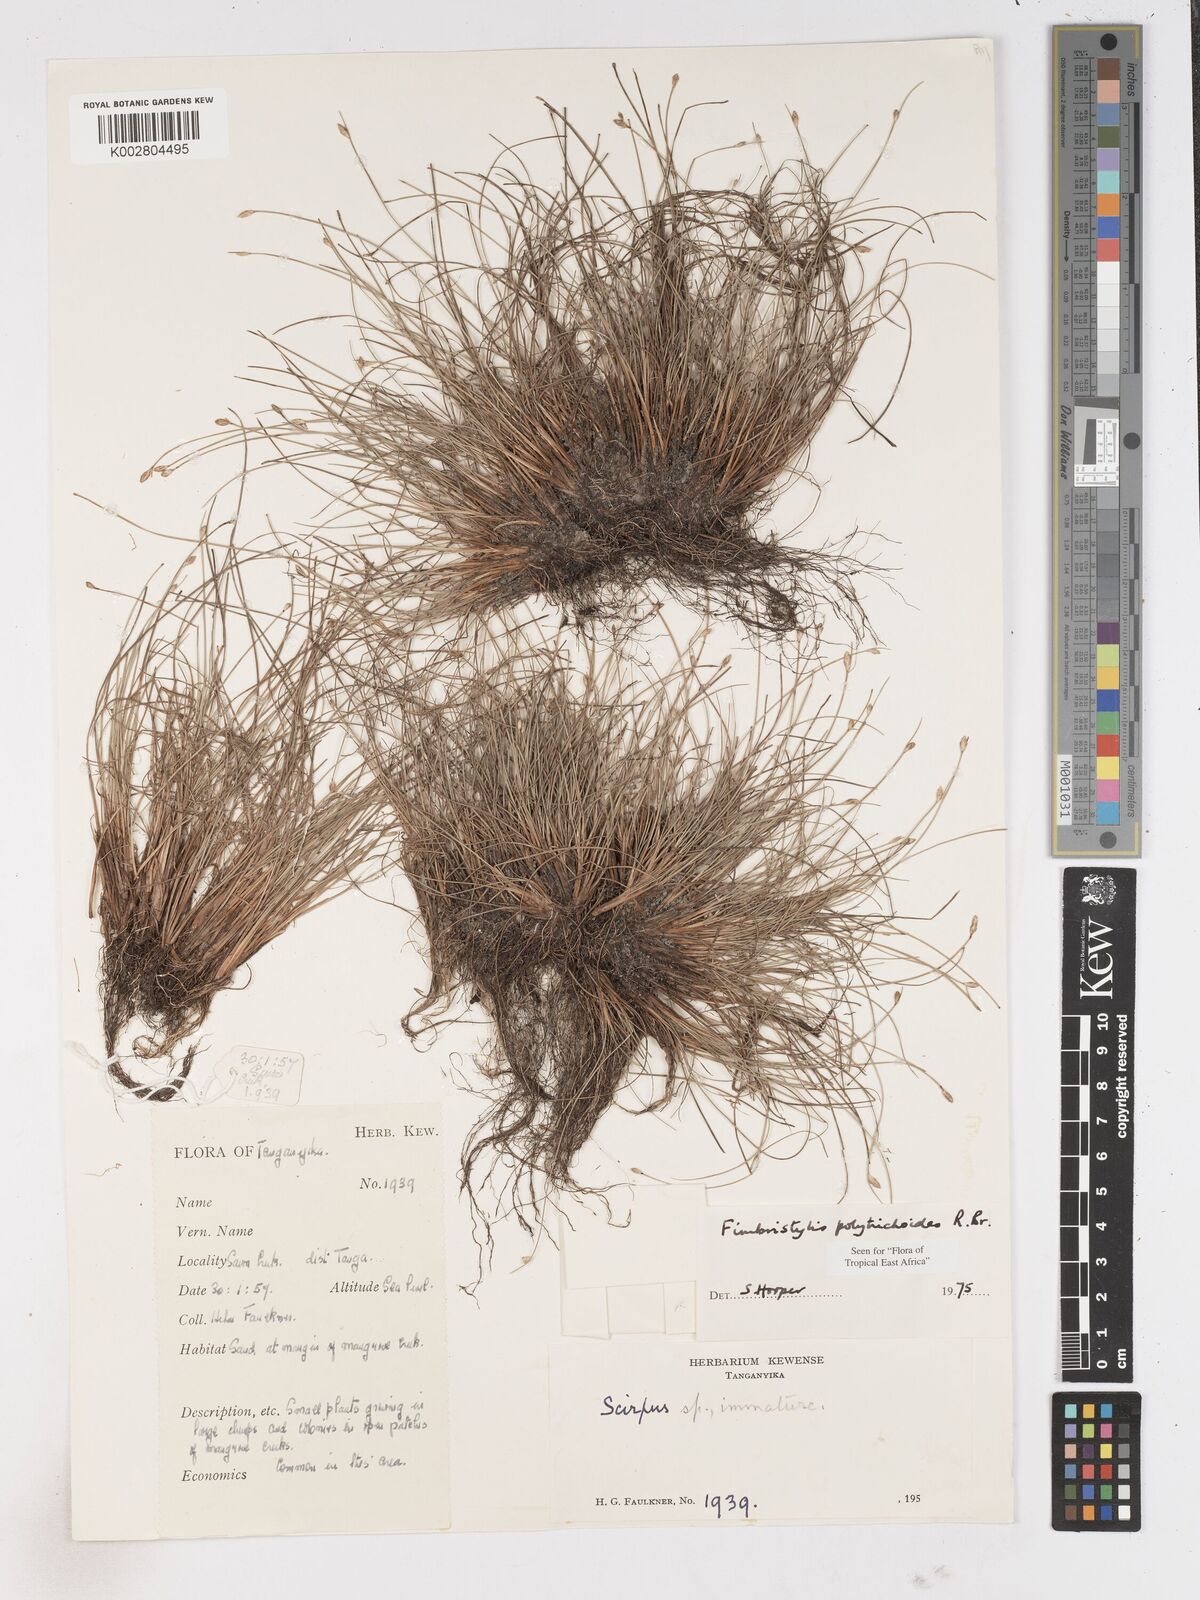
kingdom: Plantae
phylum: Tracheophyta
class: Liliopsida
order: Poales
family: Cyperaceae
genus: Fimbristylis
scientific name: Fimbristylis polytrichoides
